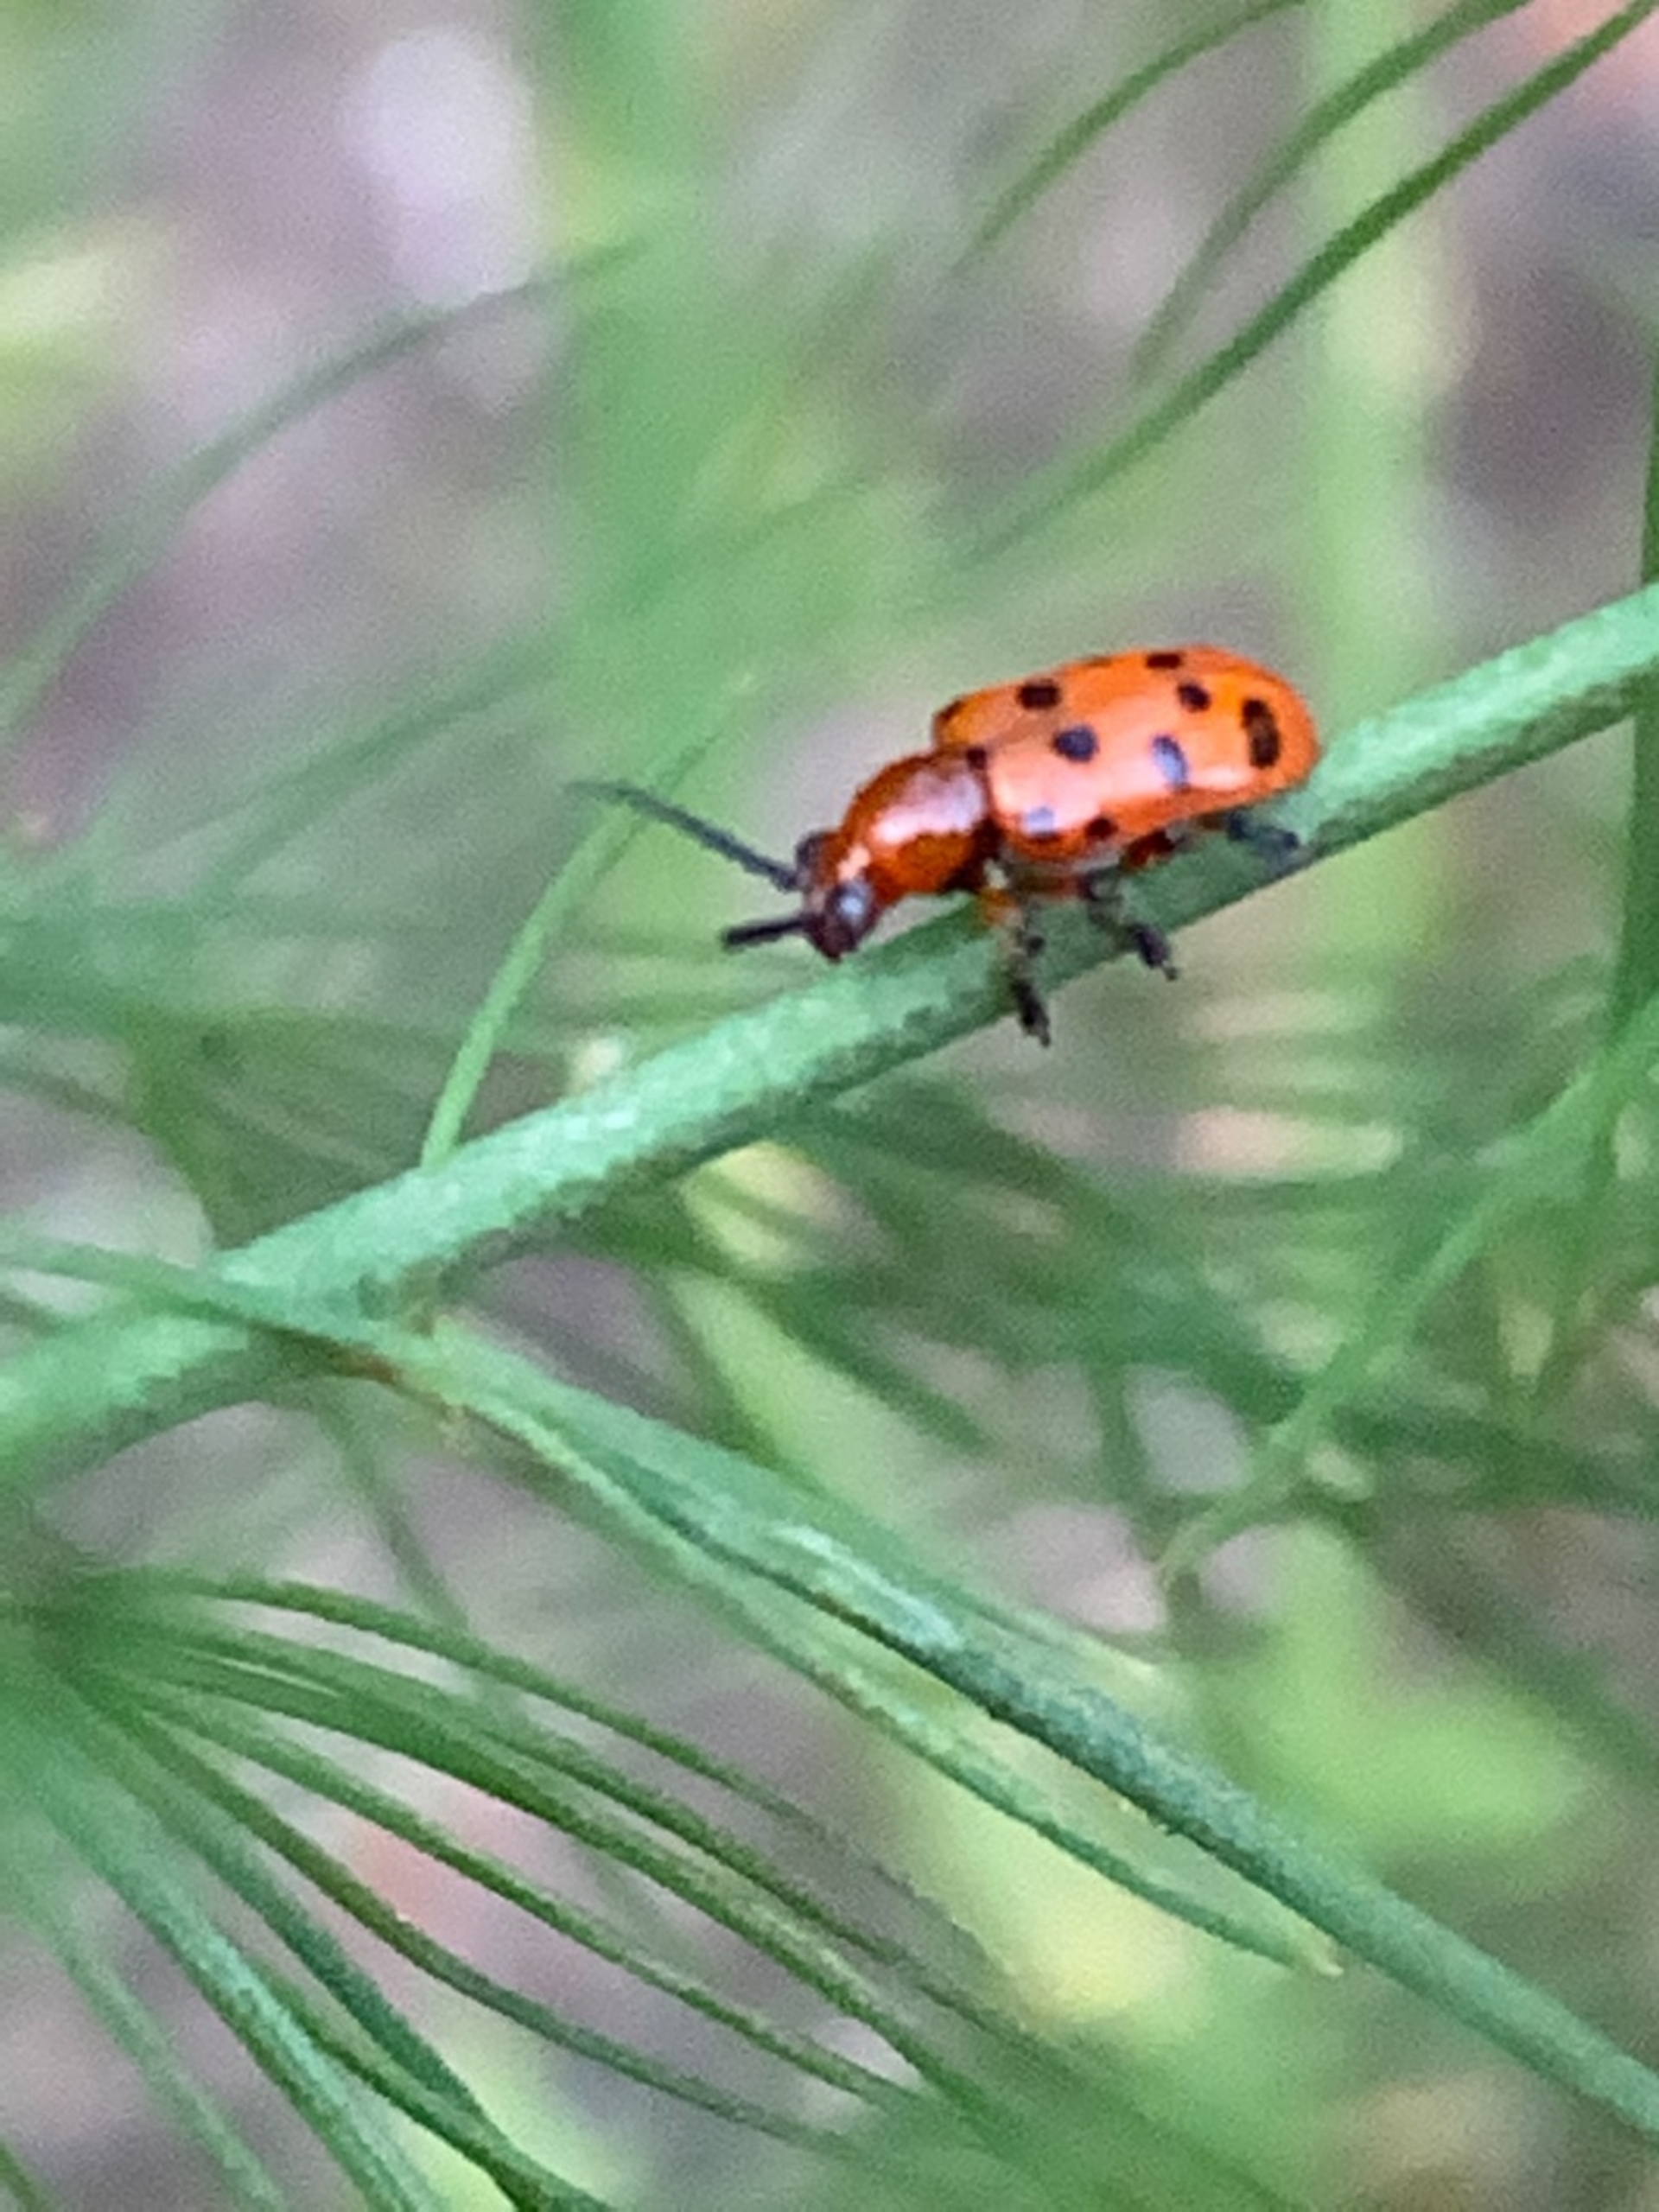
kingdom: Animalia
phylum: Arthropoda
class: Insecta
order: Coleoptera
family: Chrysomelidae
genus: Crioceris
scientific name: Crioceris duodecimpunctata
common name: Tolvplettet aspargesbille
